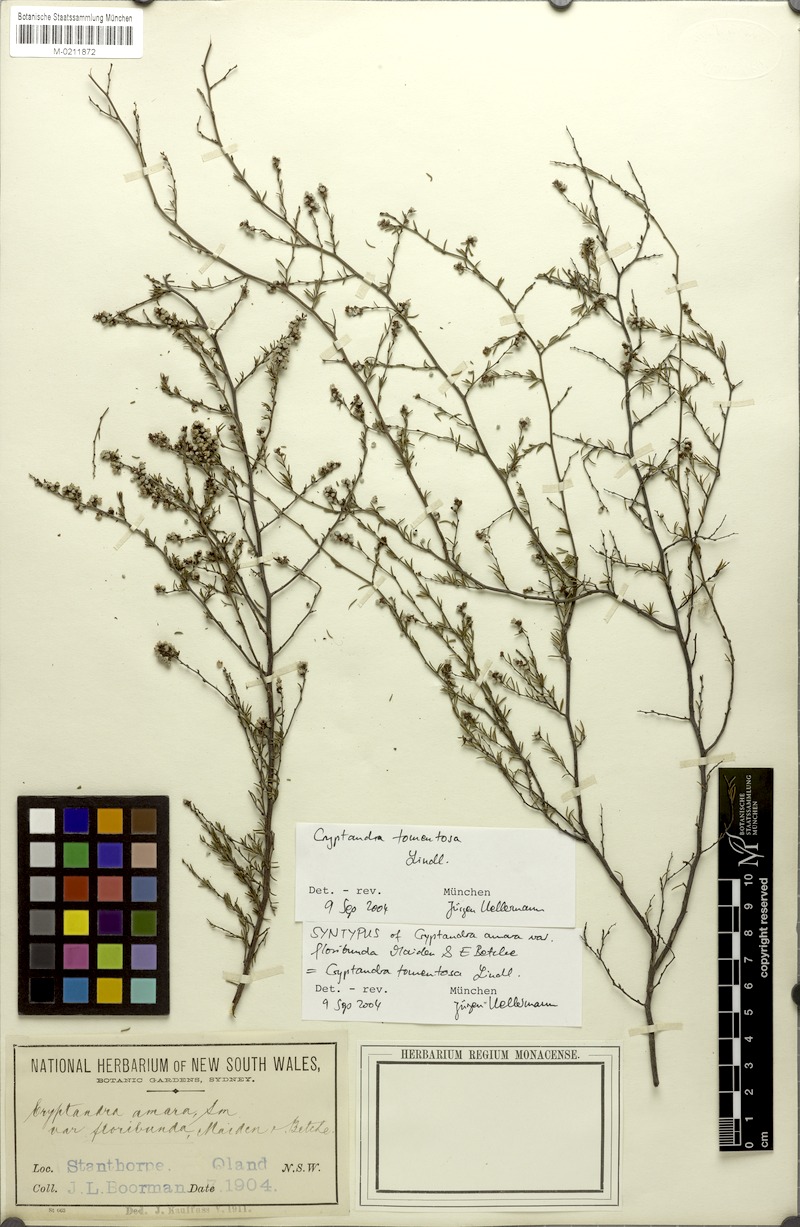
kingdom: Plantae
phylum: Tracheophyta
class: Magnoliopsida
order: Rosales
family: Rhamnaceae
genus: Cryptandra
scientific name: Cryptandra tomentosa
